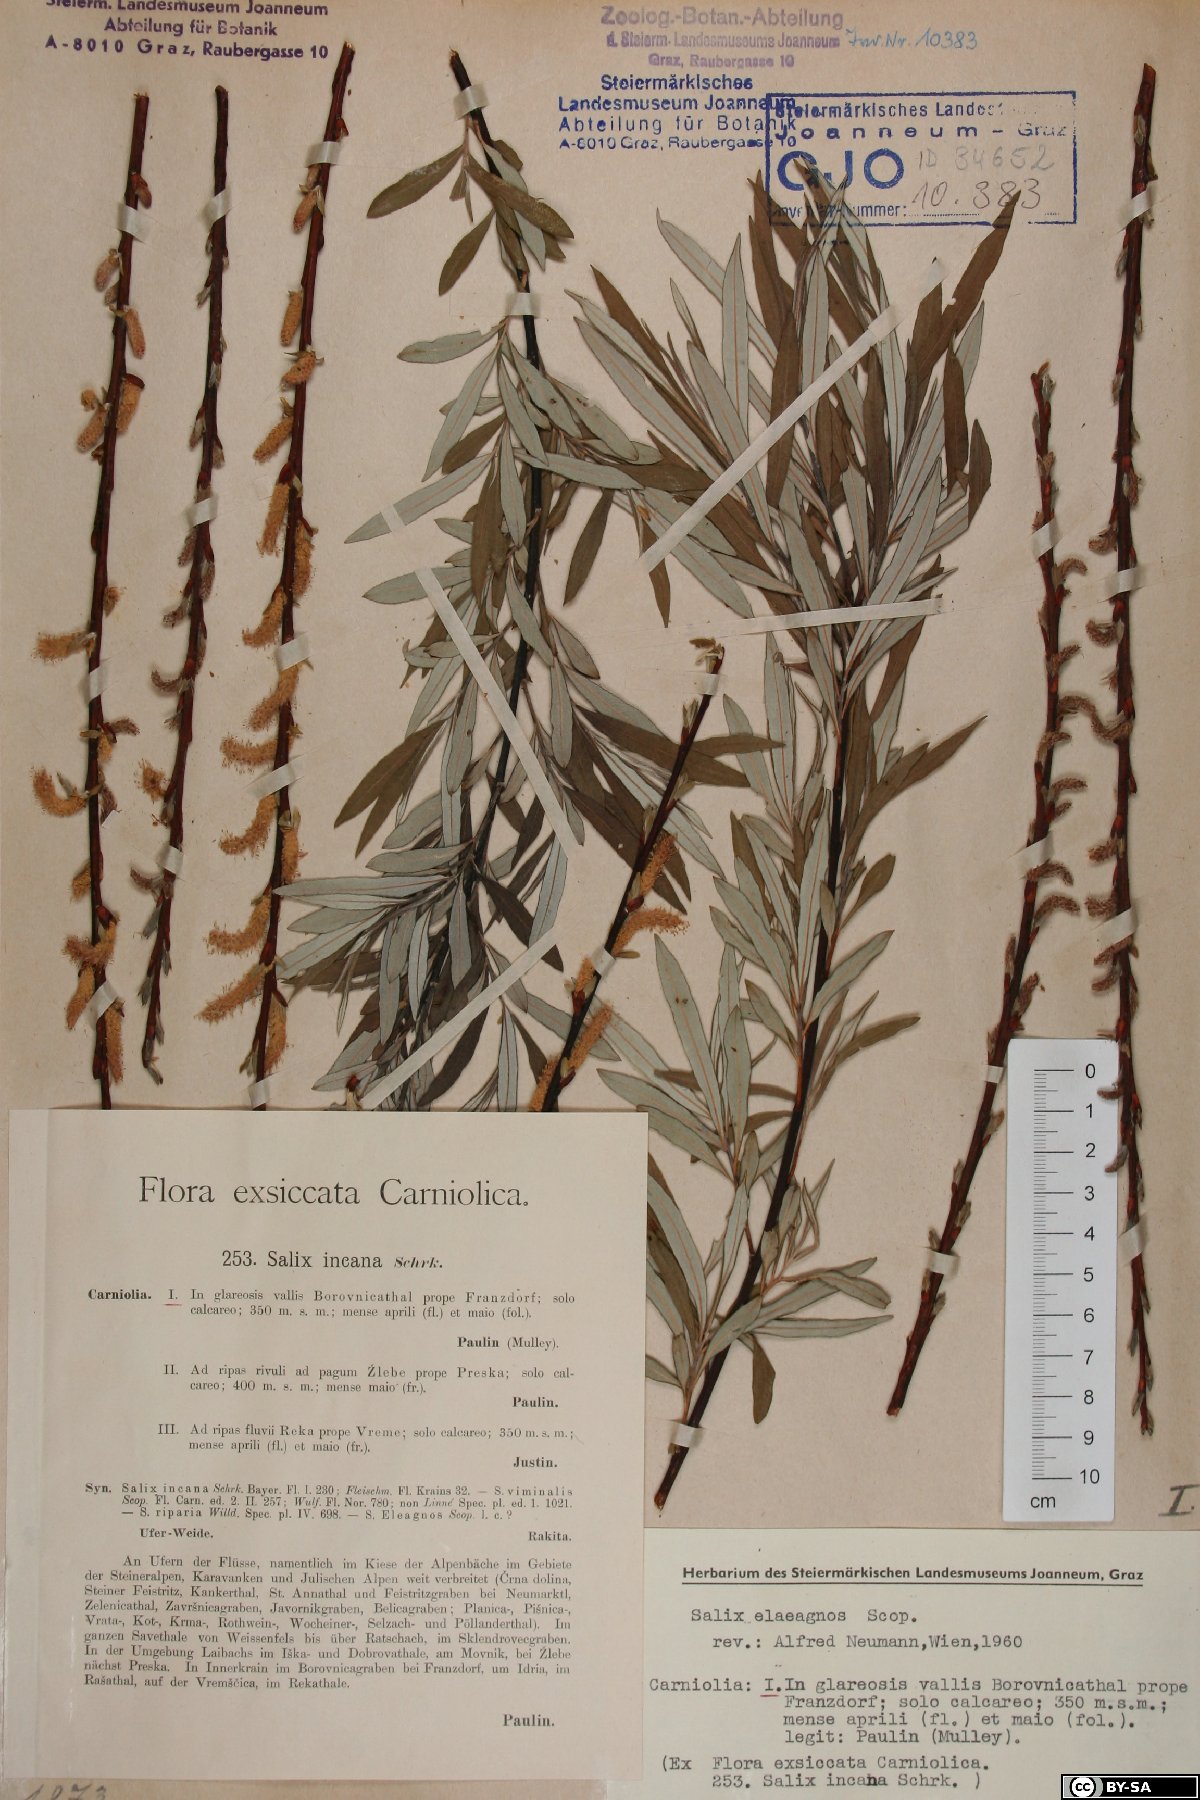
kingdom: Plantae
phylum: Tracheophyta
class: Magnoliopsida
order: Malpighiales
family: Salicaceae
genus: Salix
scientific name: Salix eleagnos
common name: Elaeagnus willow
